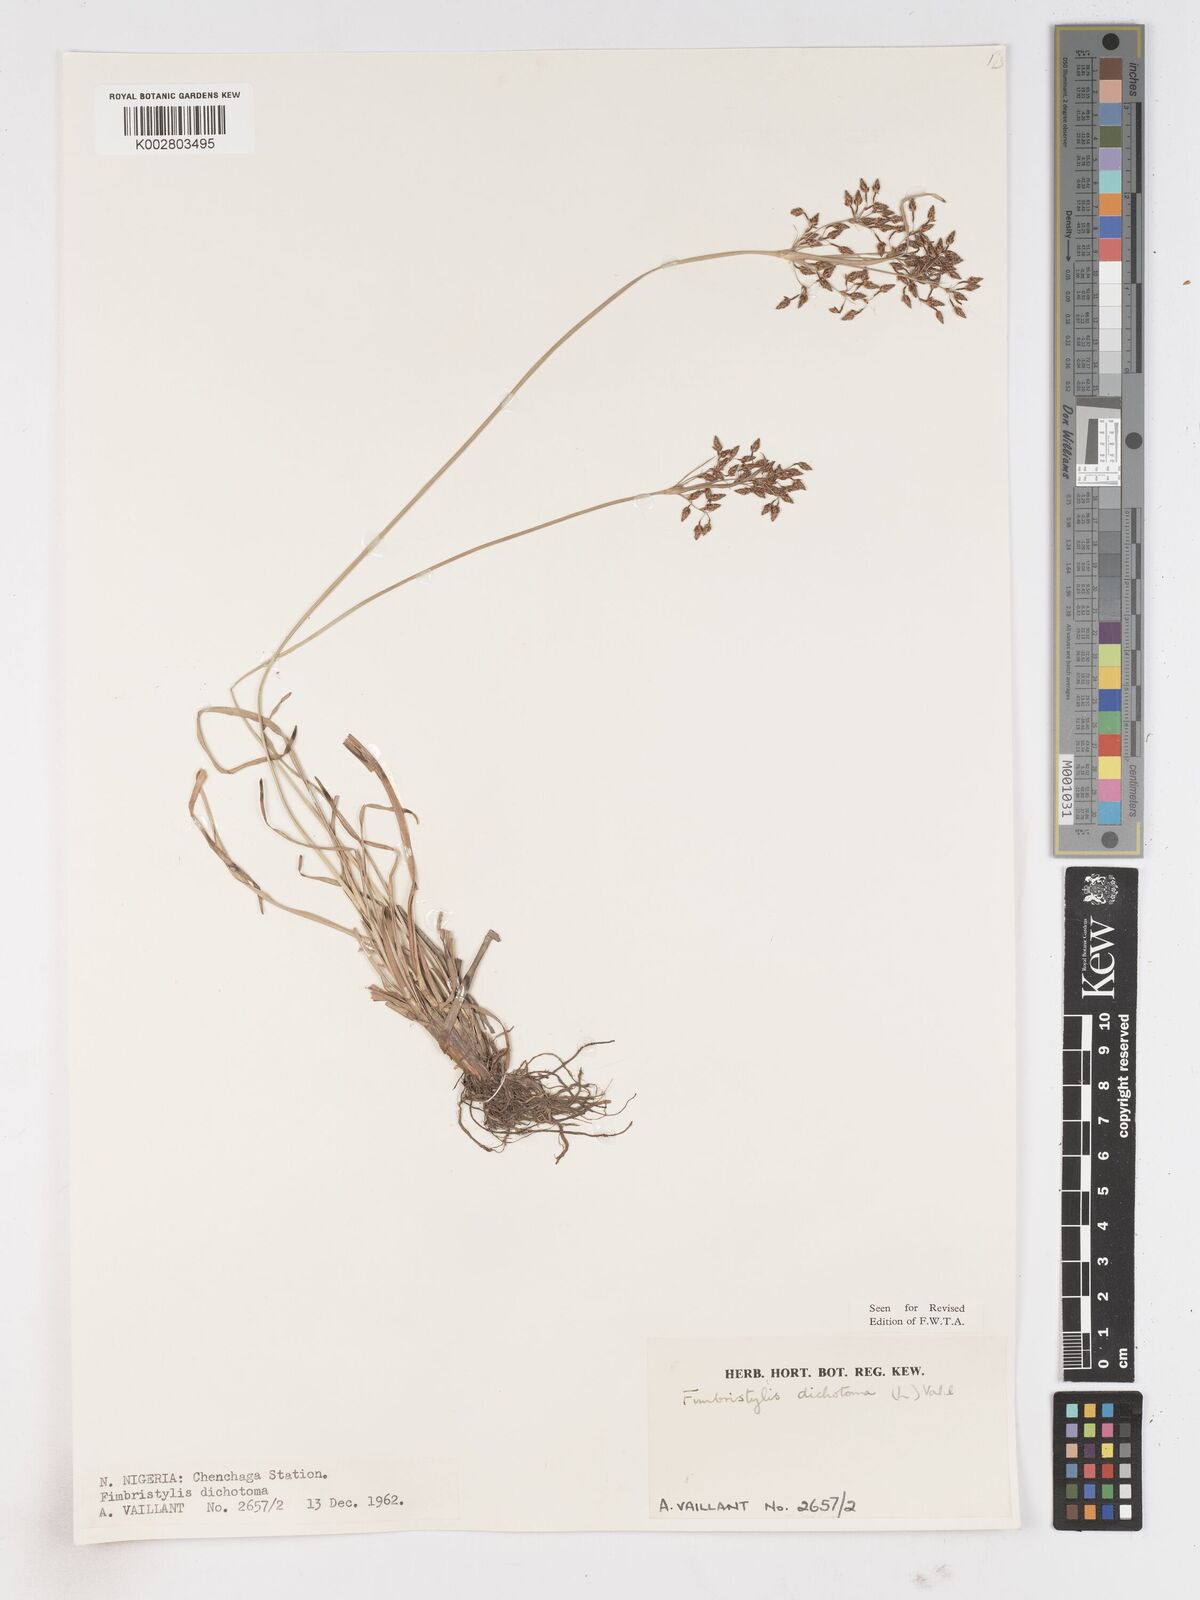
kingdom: Plantae
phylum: Tracheophyta
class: Liliopsida
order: Poales
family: Cyperaceae
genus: Fimbristylis
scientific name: Fimbristylis dichotoma
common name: Forked fimbry
